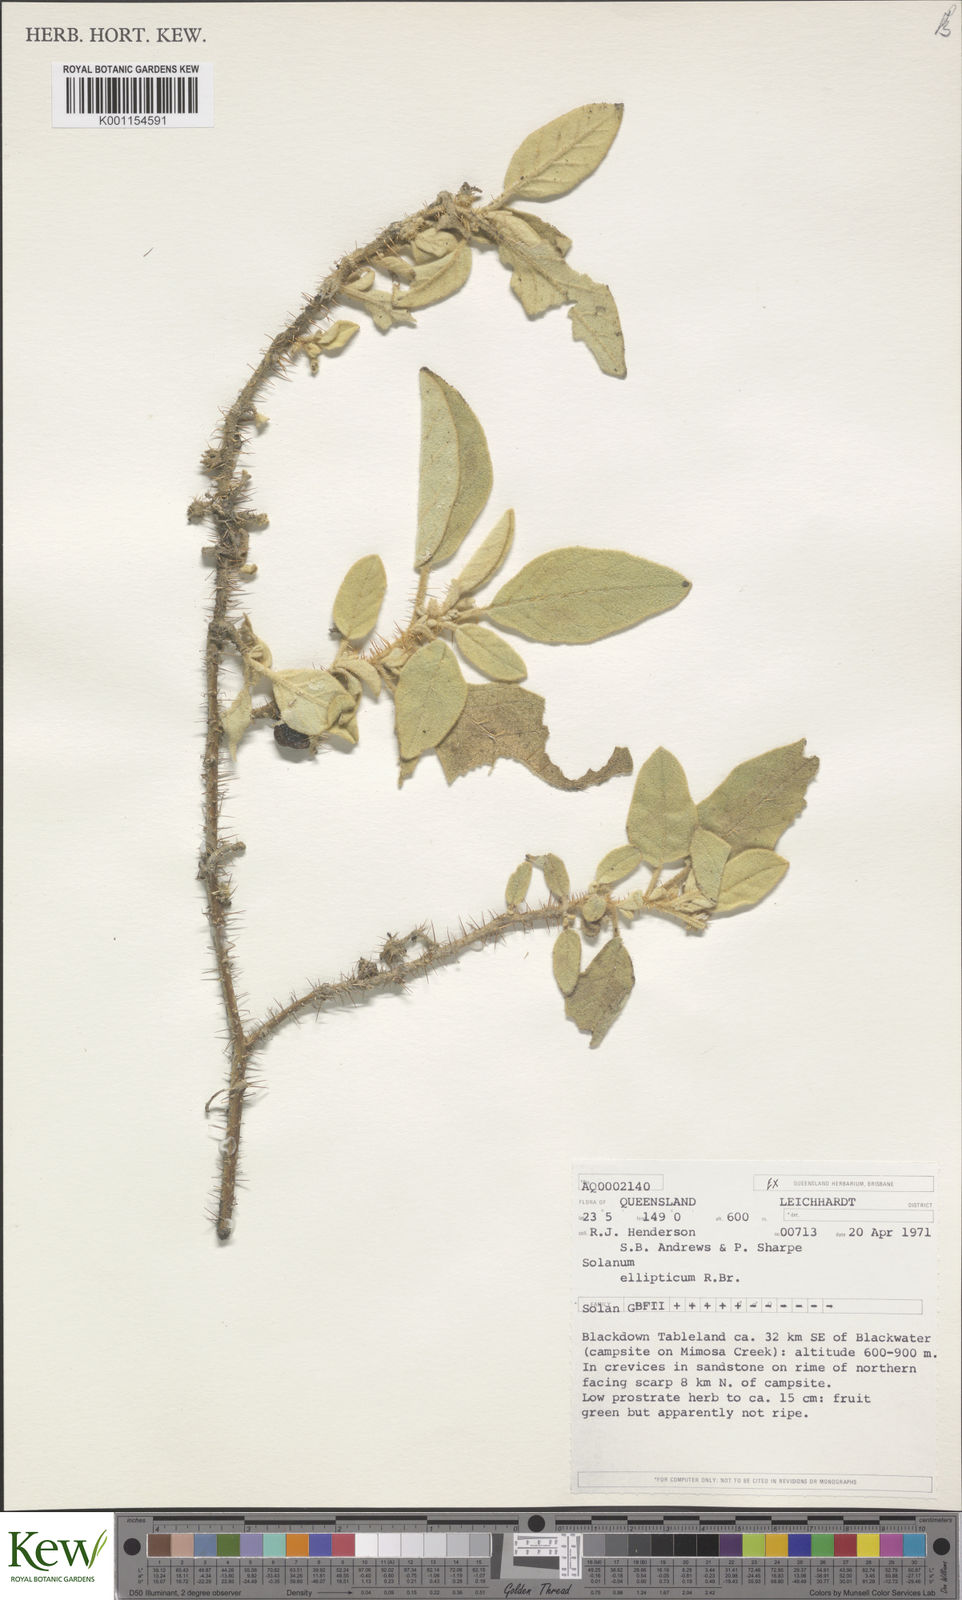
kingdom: Plantae
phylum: Tracheophyta
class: Magnoliopsida
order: Solanales
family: Solanaceae
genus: Solanum
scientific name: Solanum ellipticum
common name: Potato-bush
